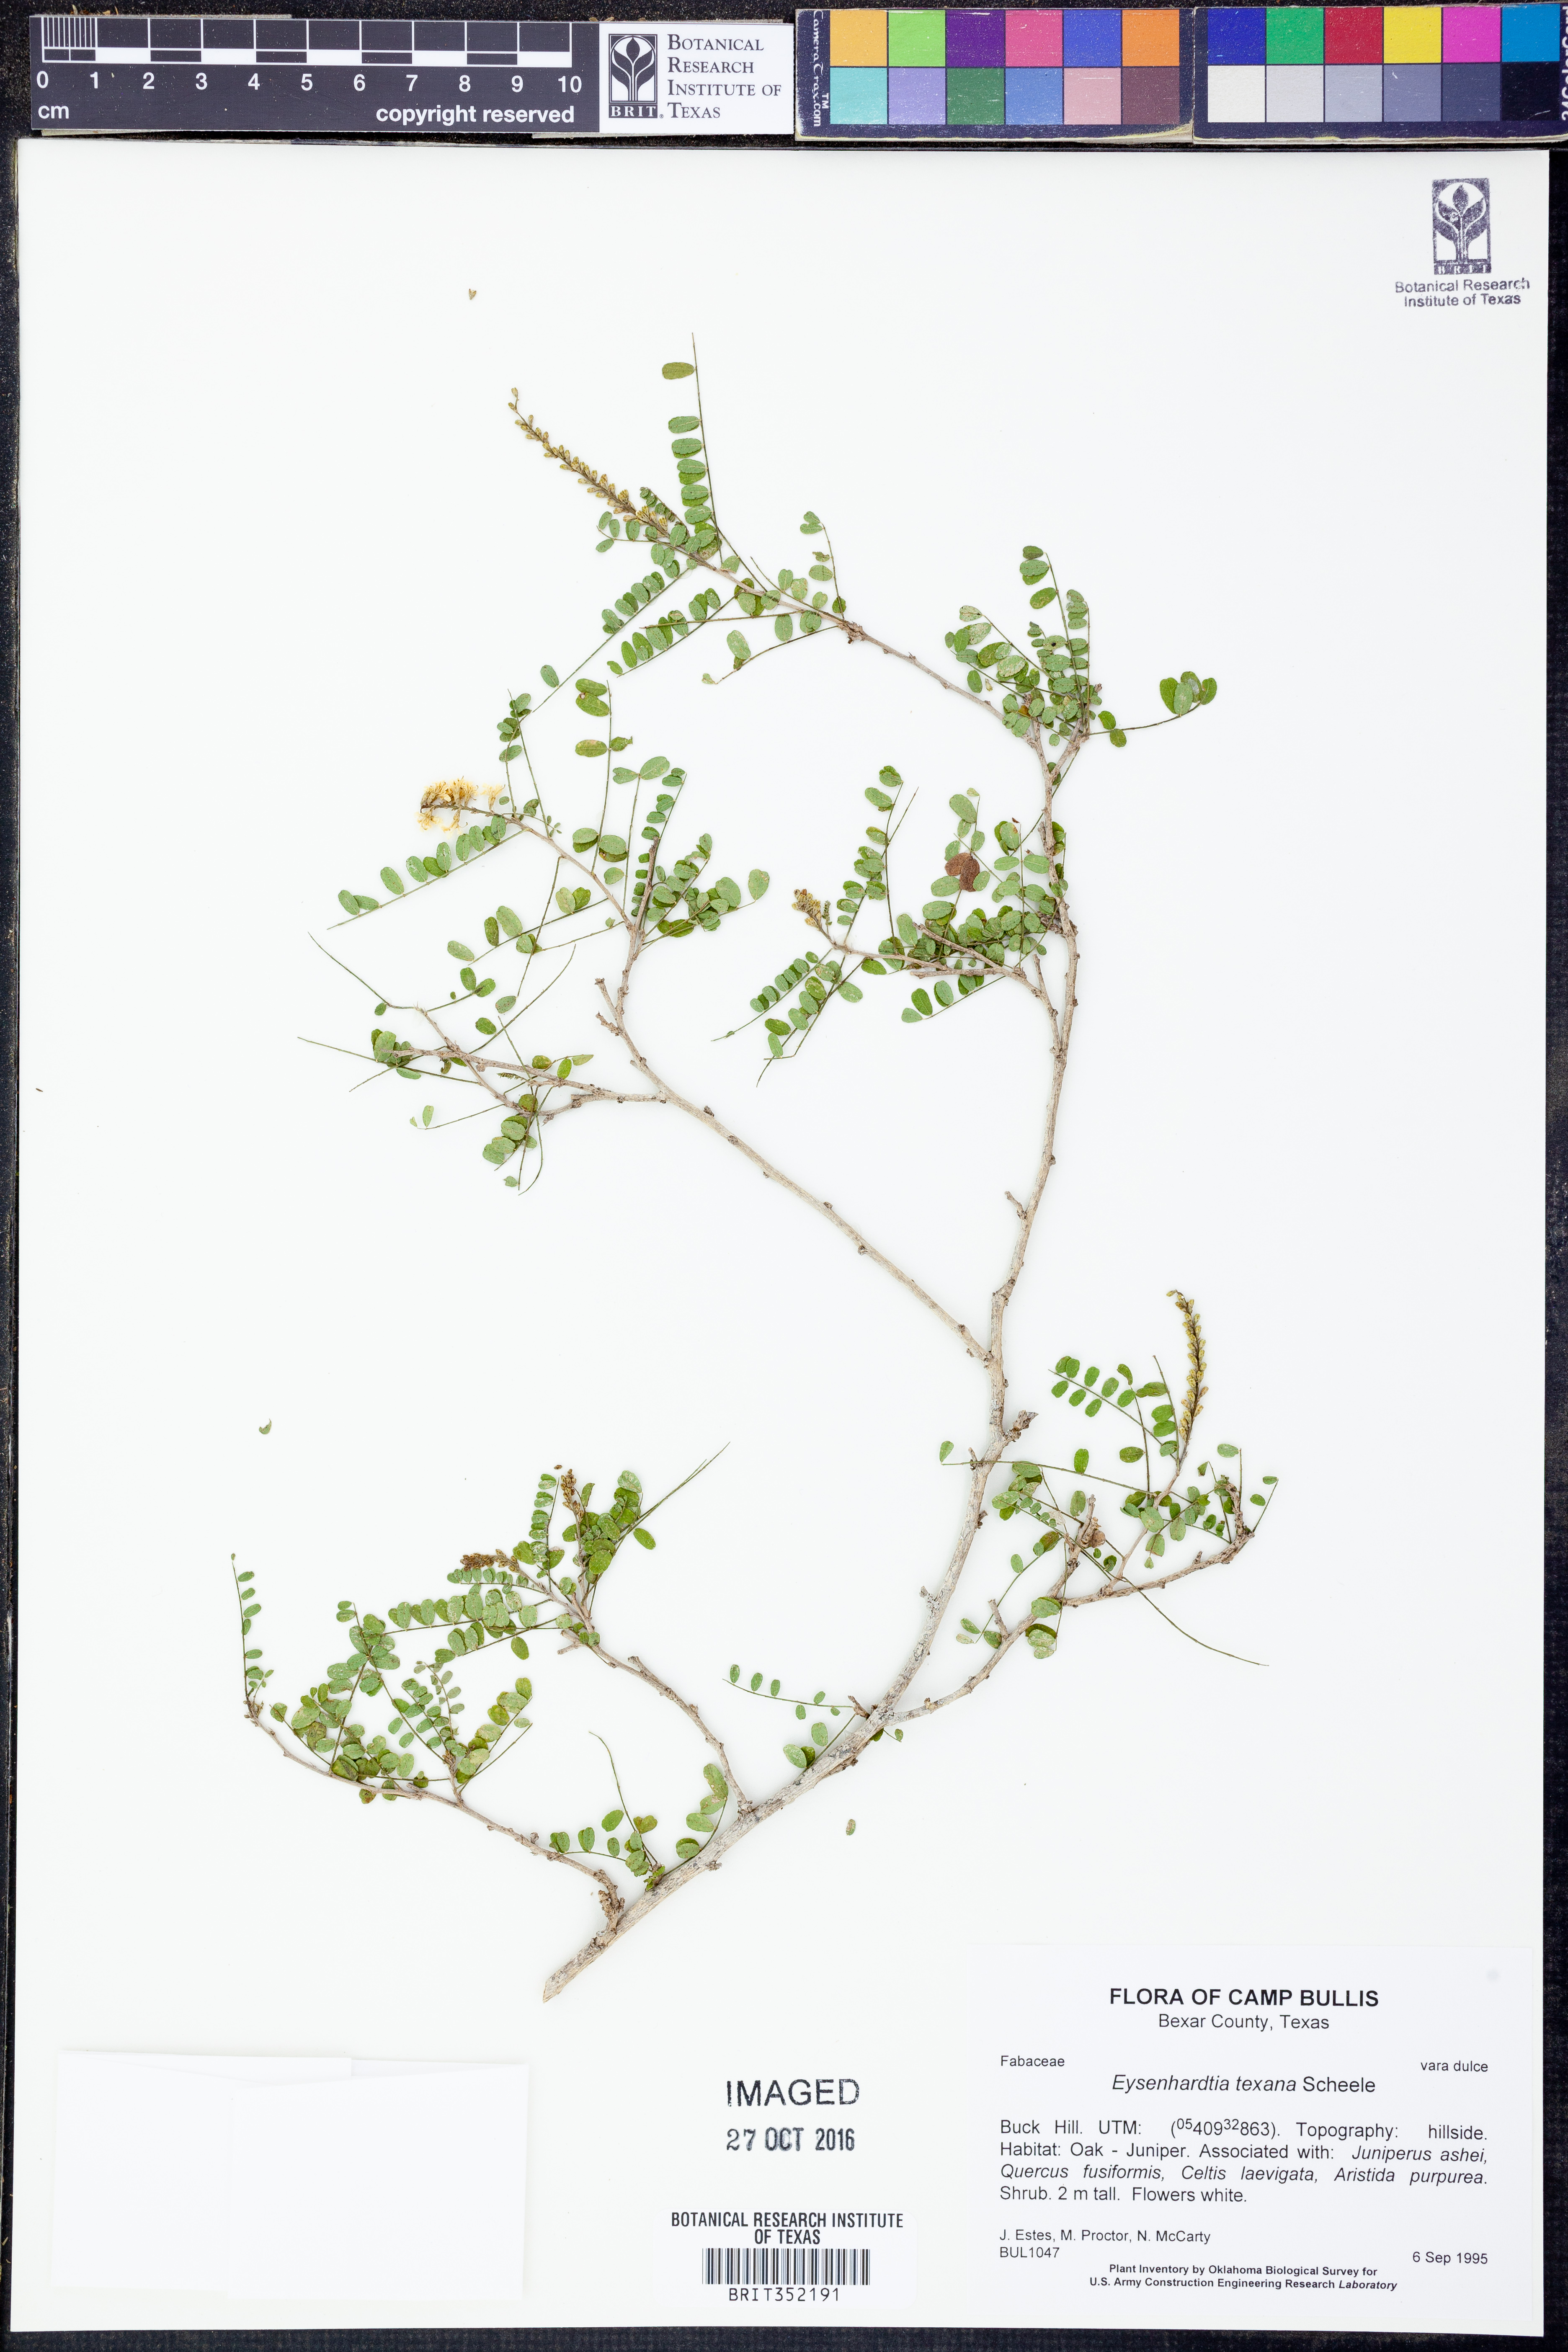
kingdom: Plantae
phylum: Tracheophyta
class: Magnoliopsida
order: Fabales
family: Fabaceae
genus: Eysenhardtia
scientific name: Eysenhardtia texana
